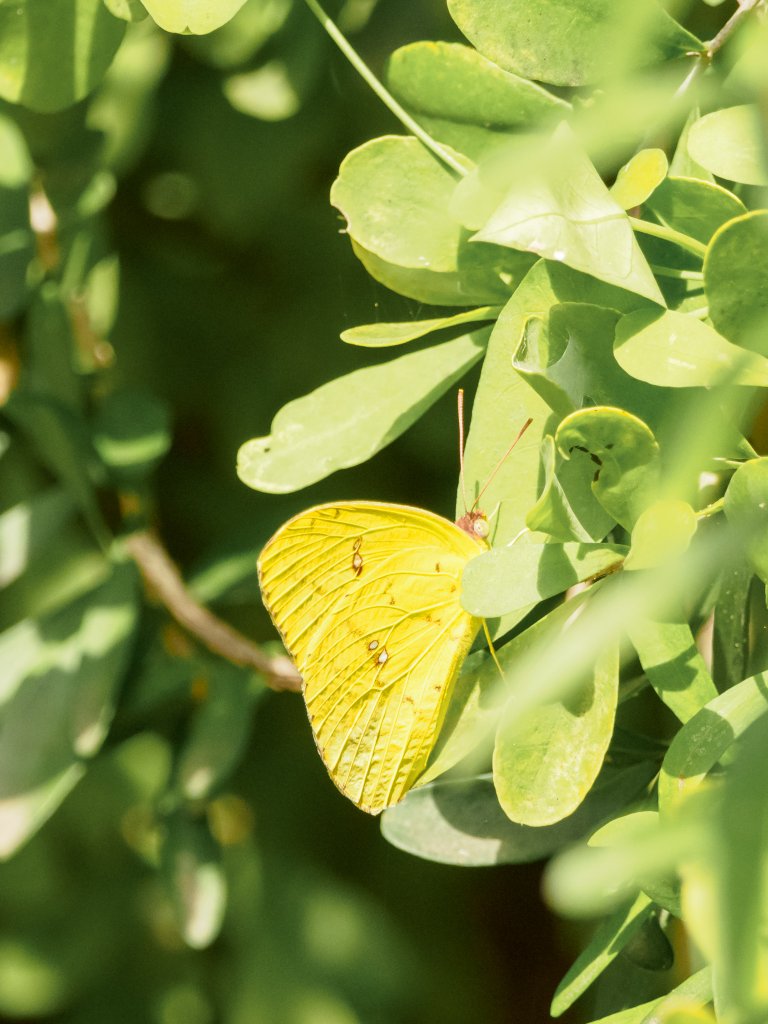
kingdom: Animalia
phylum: Arthropoda
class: Insecta
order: Lepidoptera
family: Pieridae
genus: Phoebis
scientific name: Phoebis sennae
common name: Cloudless Sulphur
